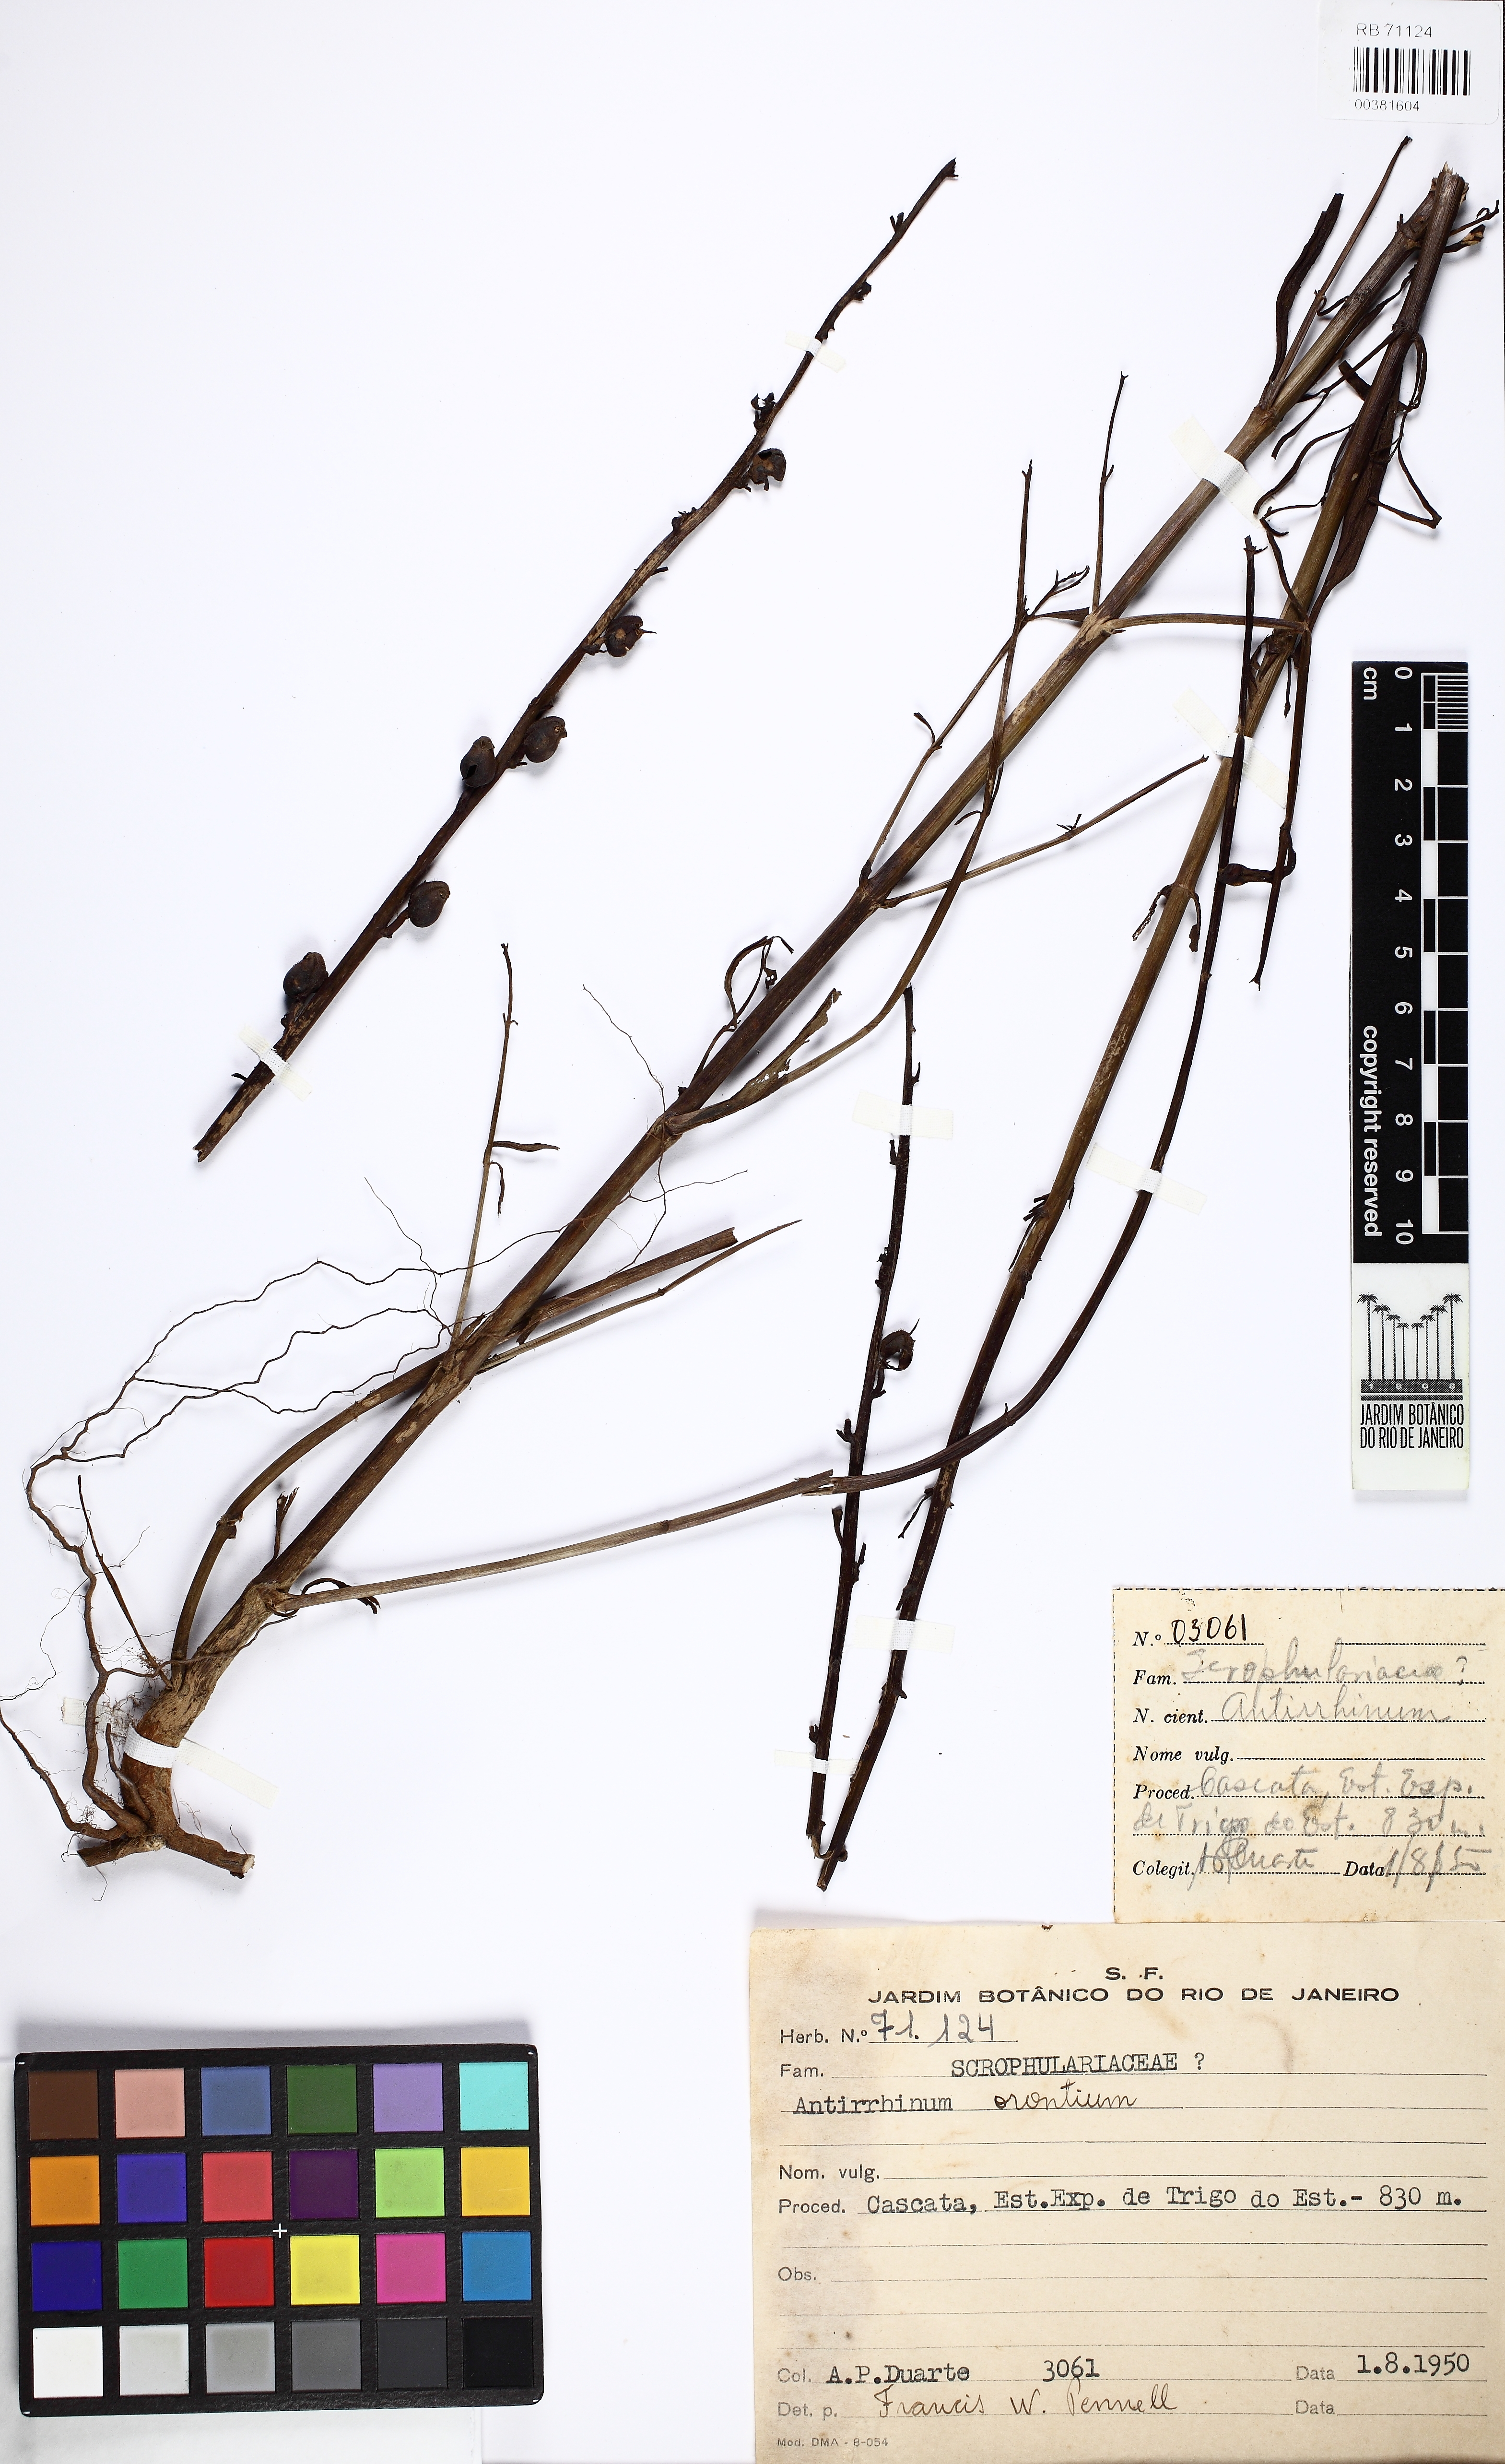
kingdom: Plantae
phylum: Tracheophyta
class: Magnoliopsida
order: Lamiales
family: Plantaginaceae
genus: Misopates
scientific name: Misopates orontium
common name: Weasel's-snout
